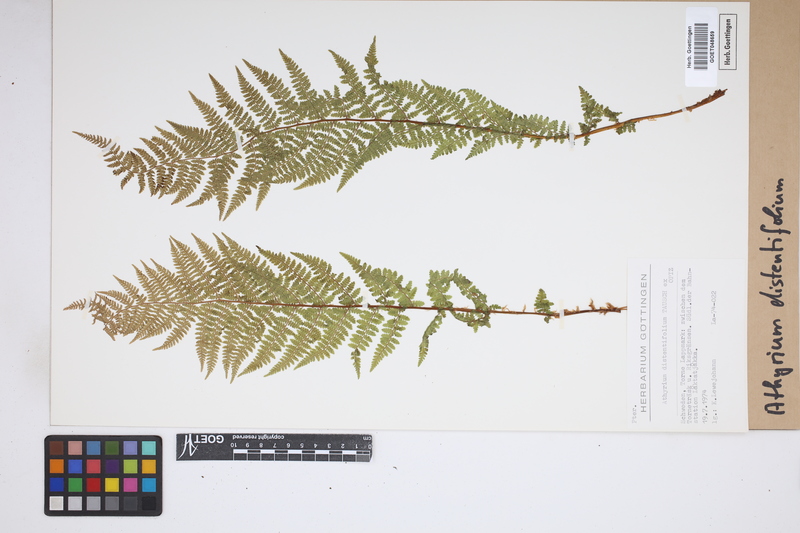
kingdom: Plantae
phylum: Tracheophyta
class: Polypodiopsida
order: Polypodiales
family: Athyriaceae
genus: Pseudathyrium
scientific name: Pseudathyrium alpestre
